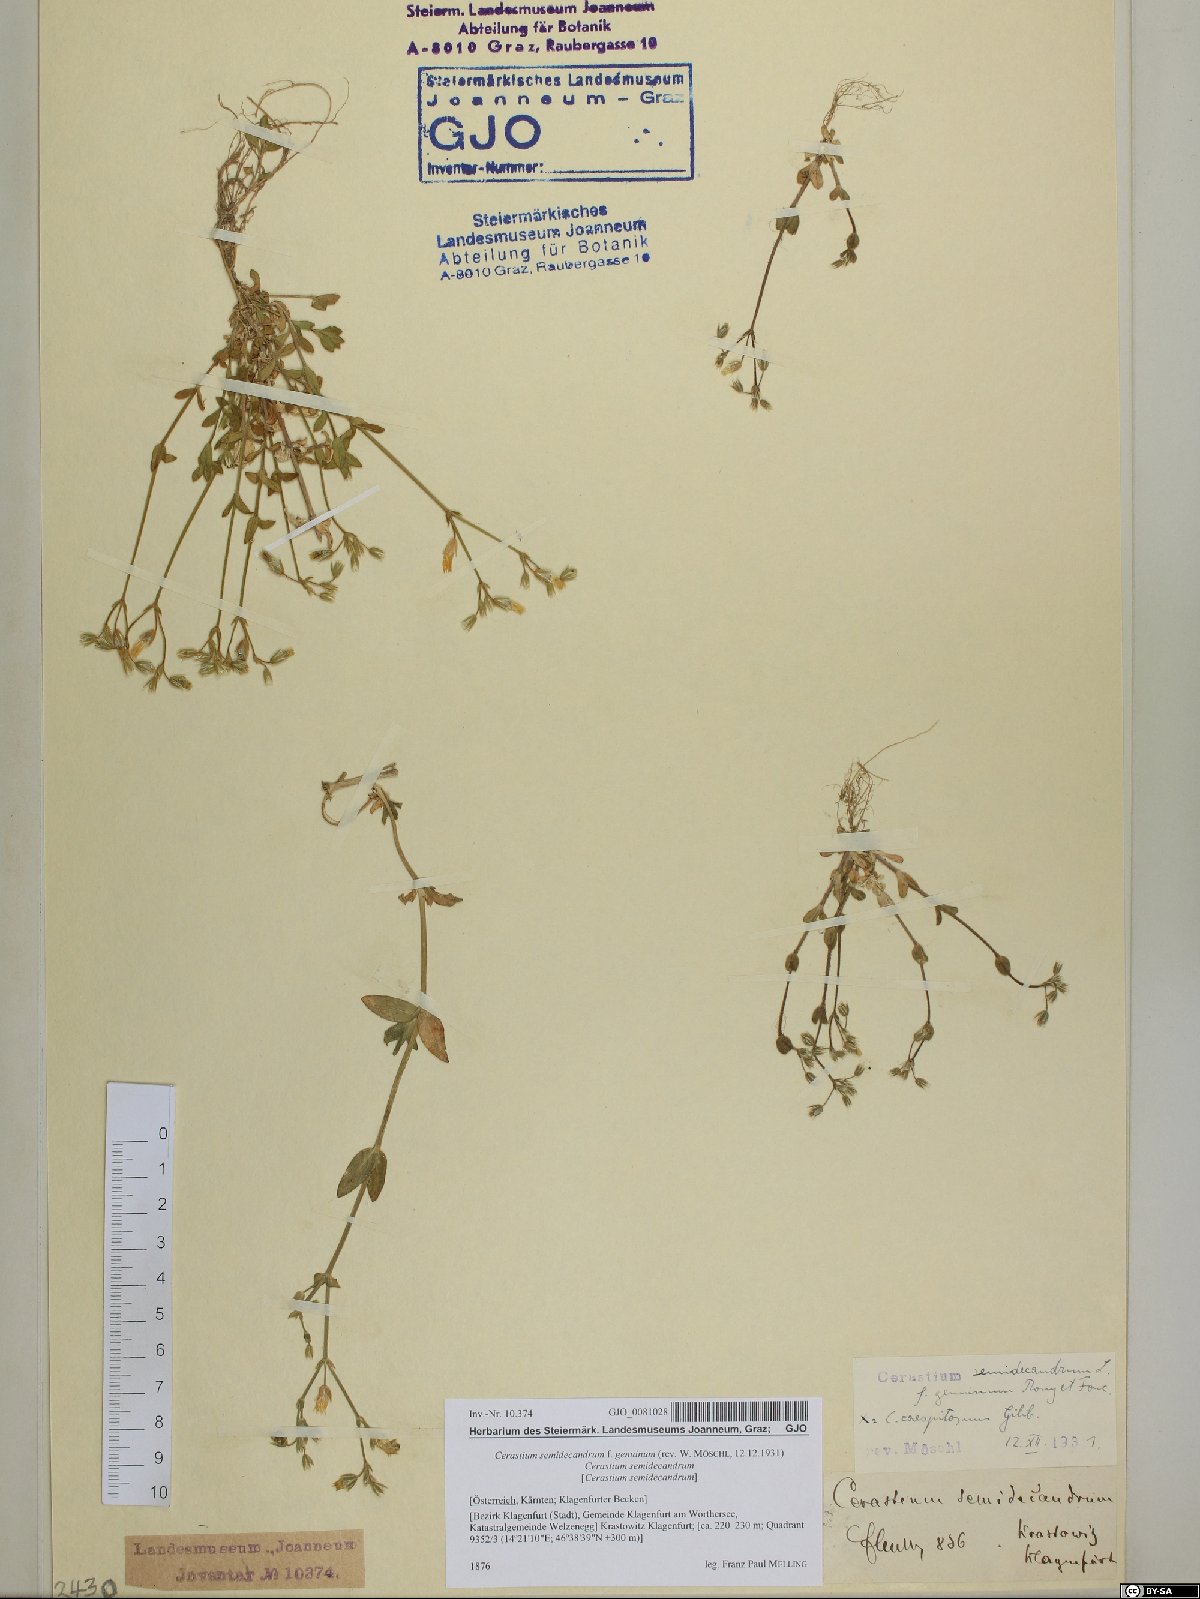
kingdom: Plantae
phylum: Tracheophyta
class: Magnoliopsida
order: Caryophyllales
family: Caryophyllaceae
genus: Cerastium
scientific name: Cerastium semidecandrum
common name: Little mouse-ear
